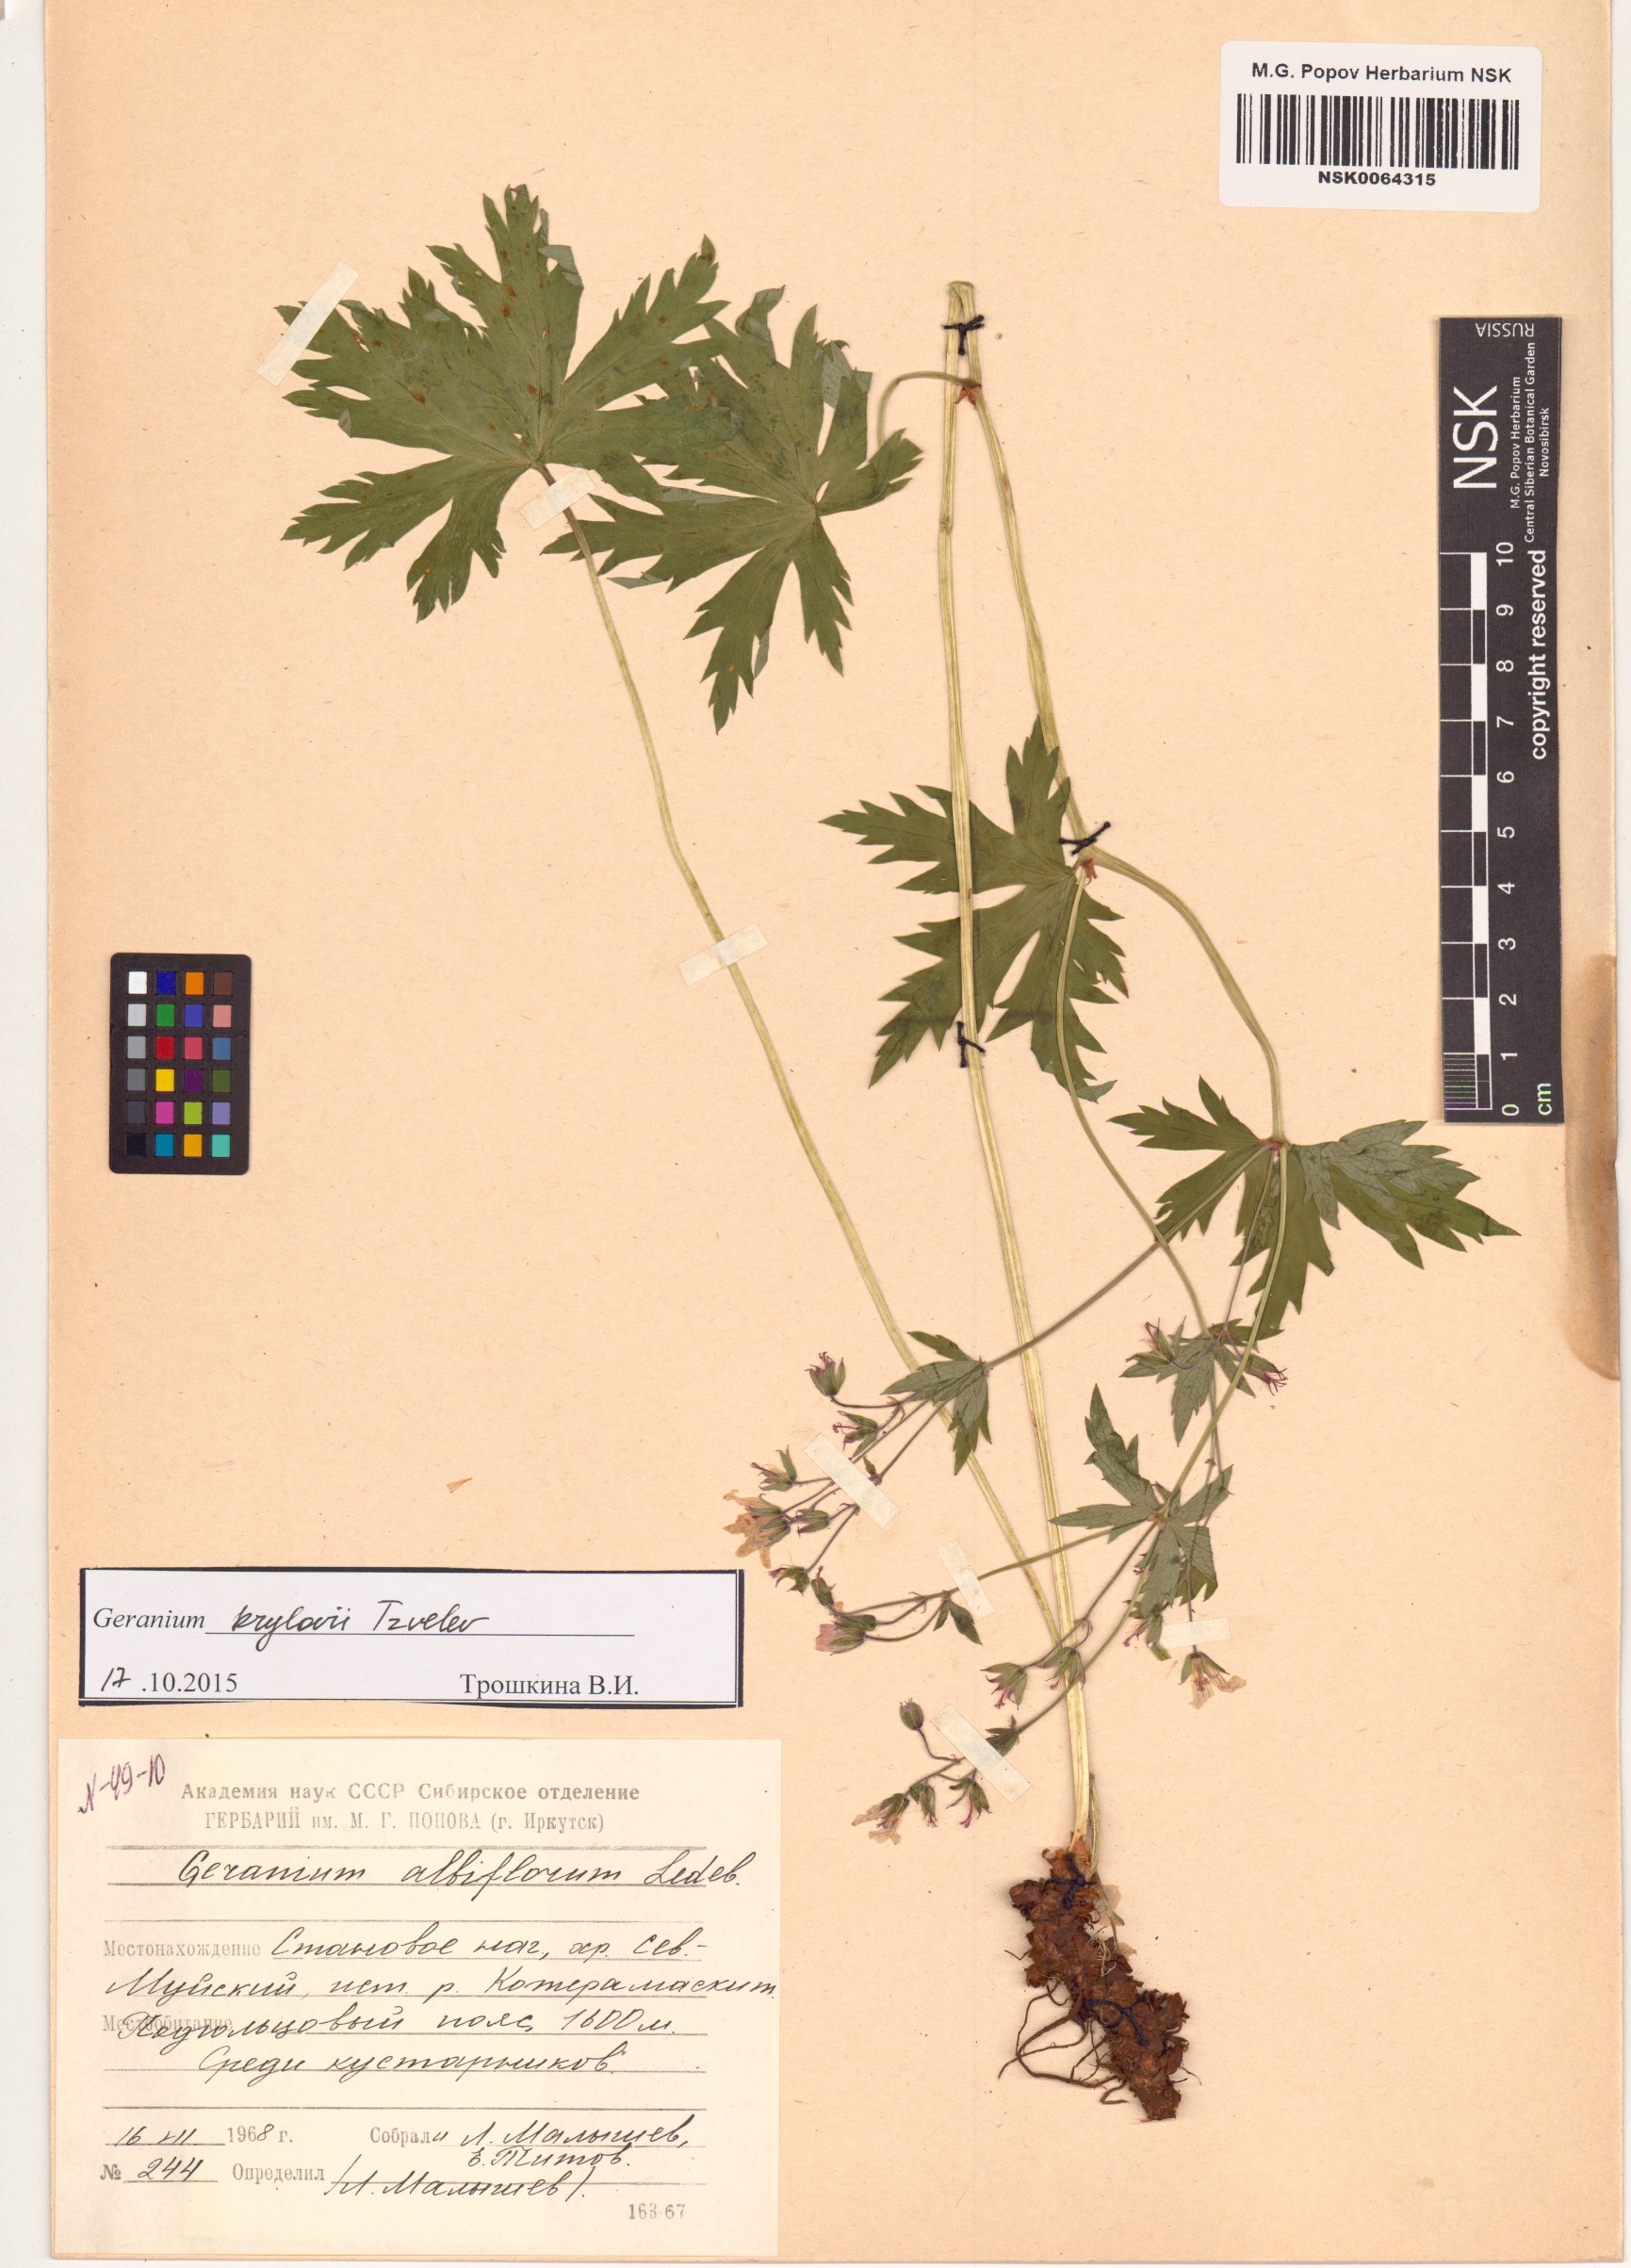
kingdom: Plantae
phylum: Tracheophyta
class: Magnoliopsida
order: Geraniales
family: Geraniaceae
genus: Geranium
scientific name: Geranium sylvaticum
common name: Wood crane's-bill
